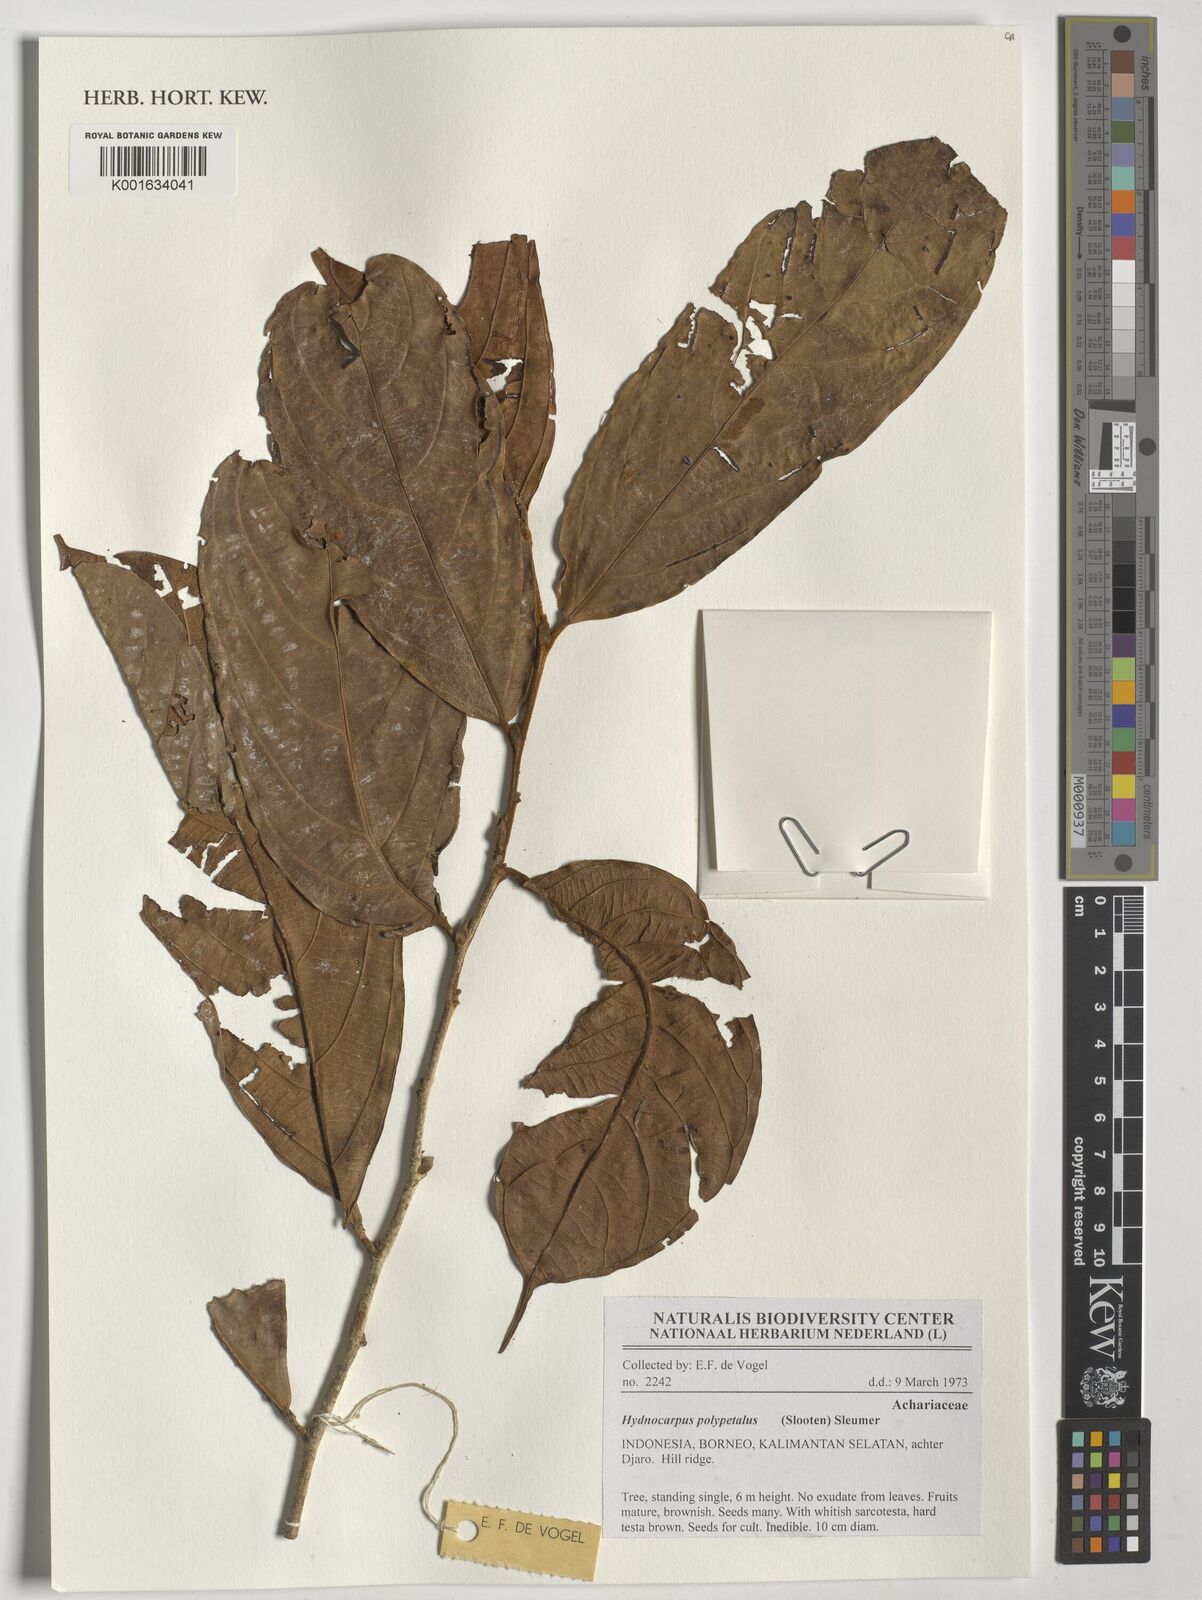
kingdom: Plantae
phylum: Tracheophyta
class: Magnoliopsida
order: Malpighiales
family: Achariaceae
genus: Hydnocarpus
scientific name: Hydnocarpus polypetalus
